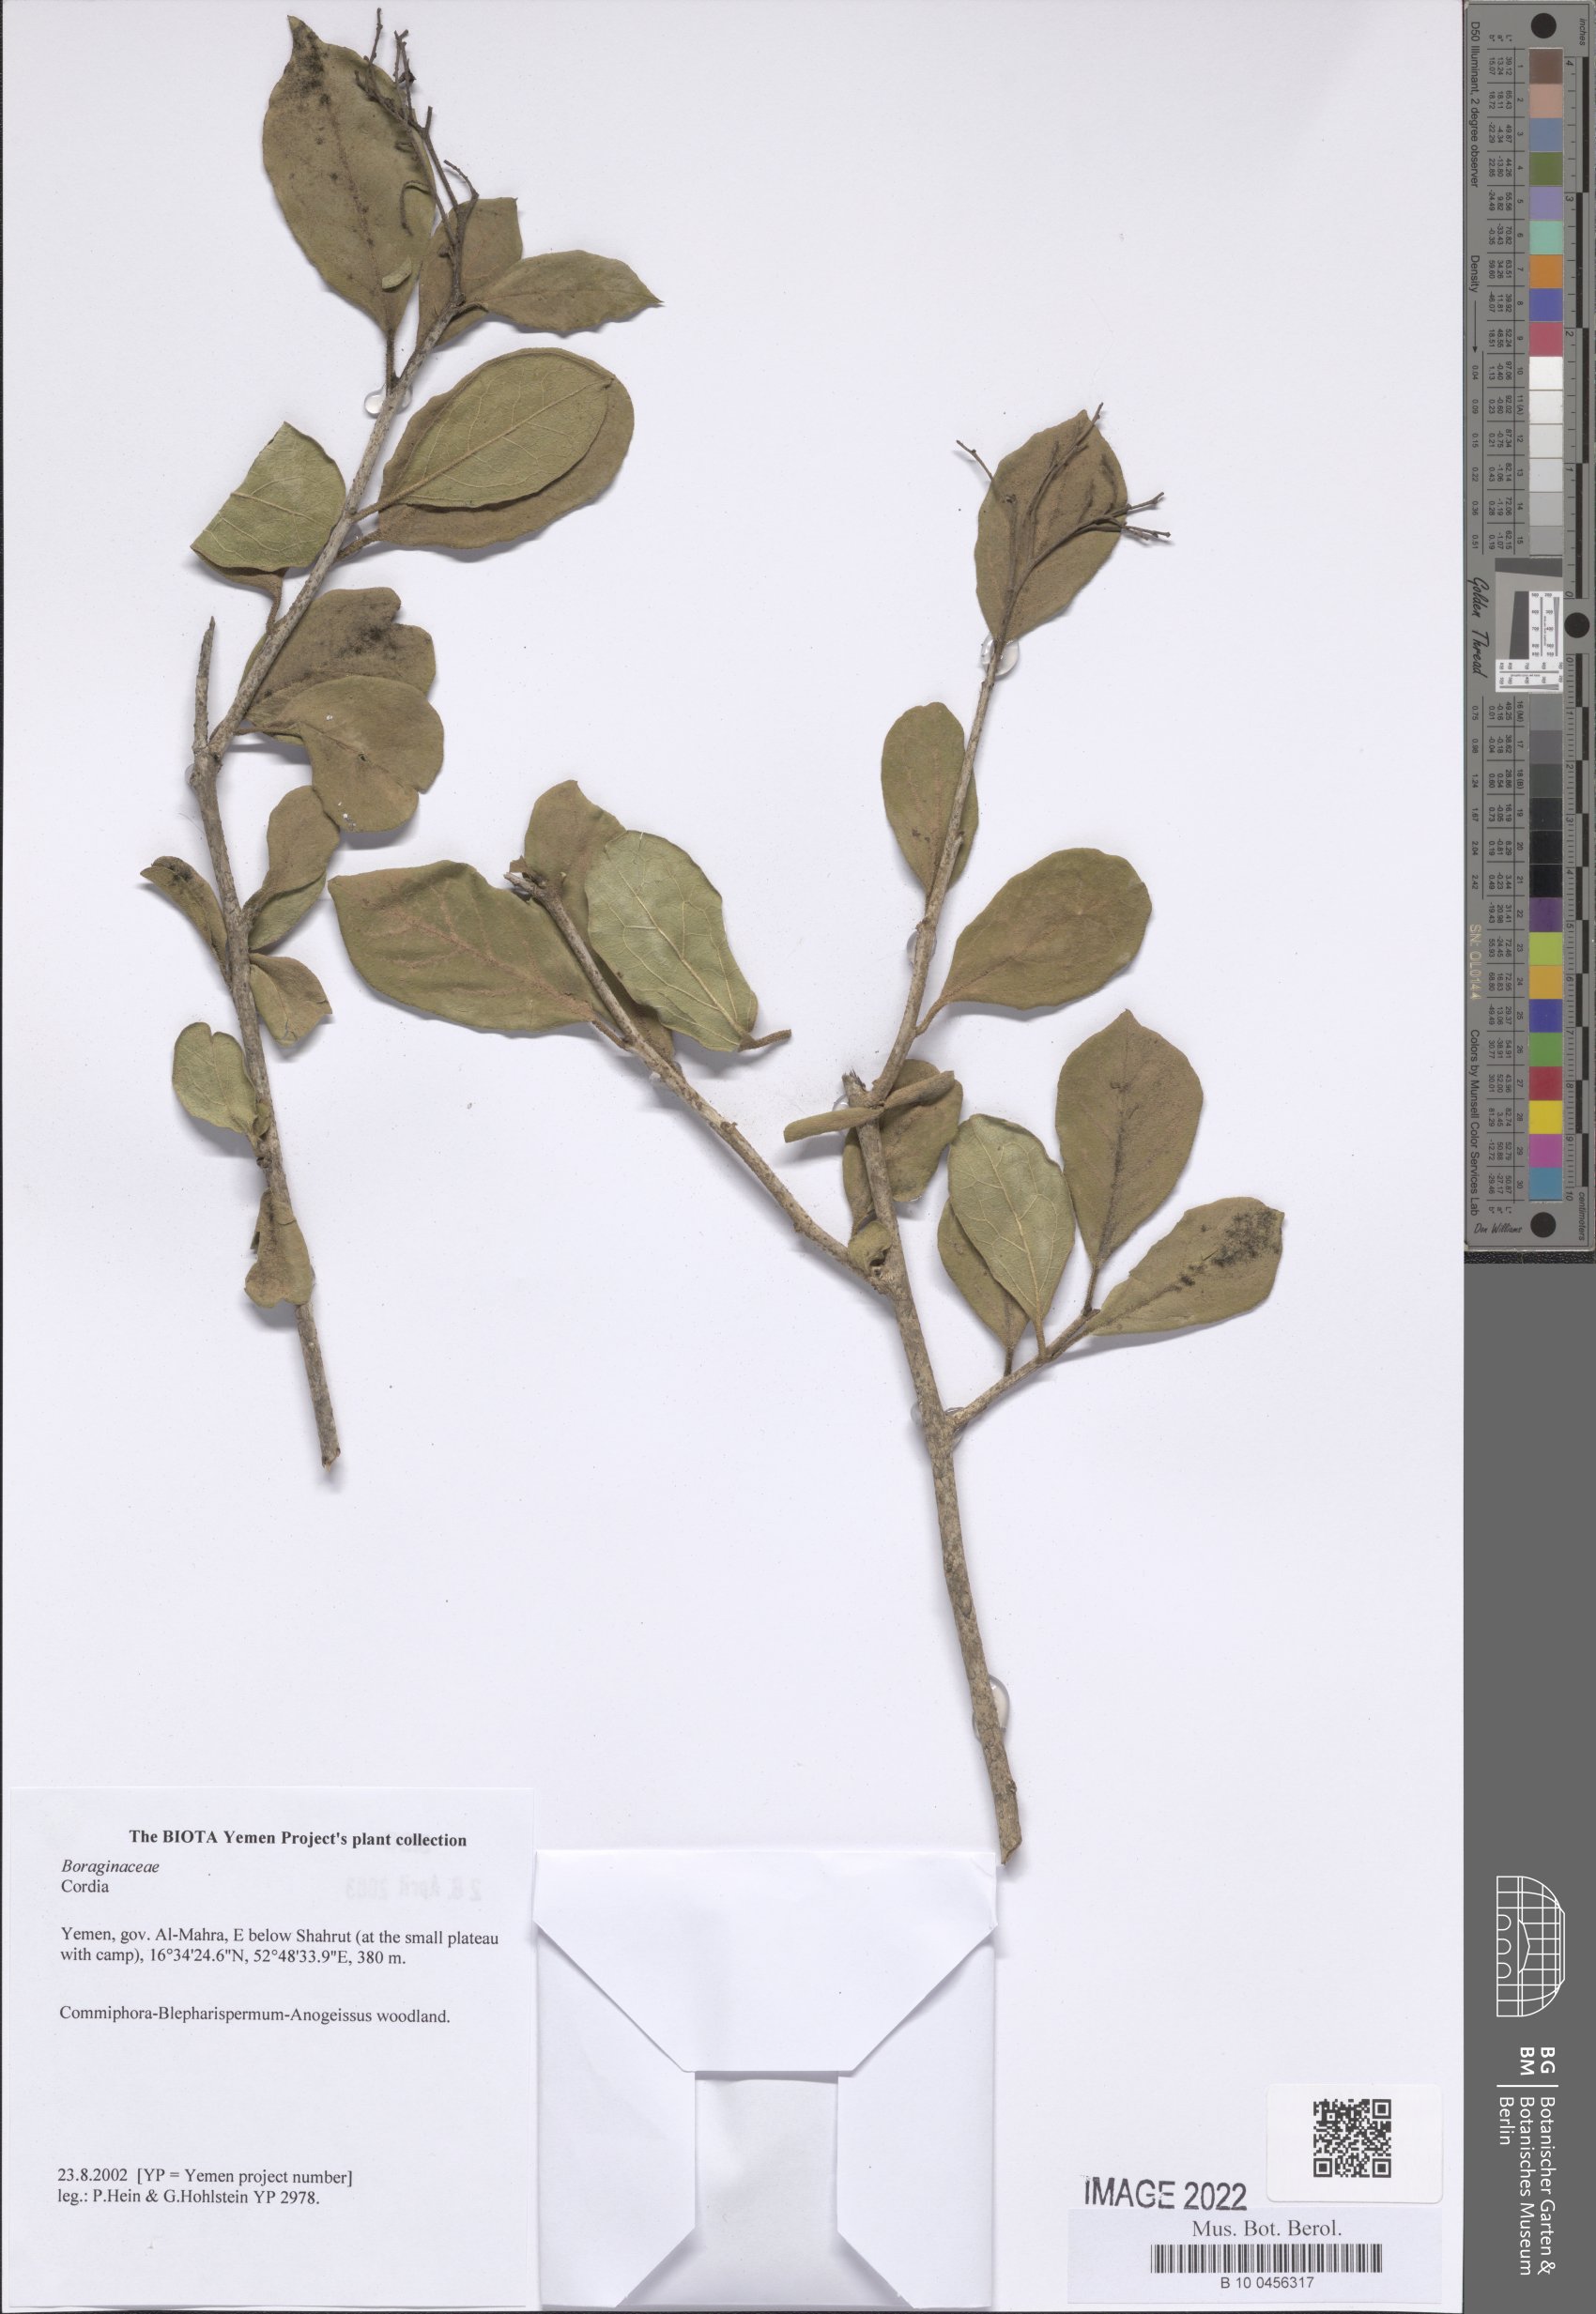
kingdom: Plantae
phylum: Tracheophyta
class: Magnoliopsida
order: Boraginales
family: Cordiaceae
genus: Cordia
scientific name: Cordia
